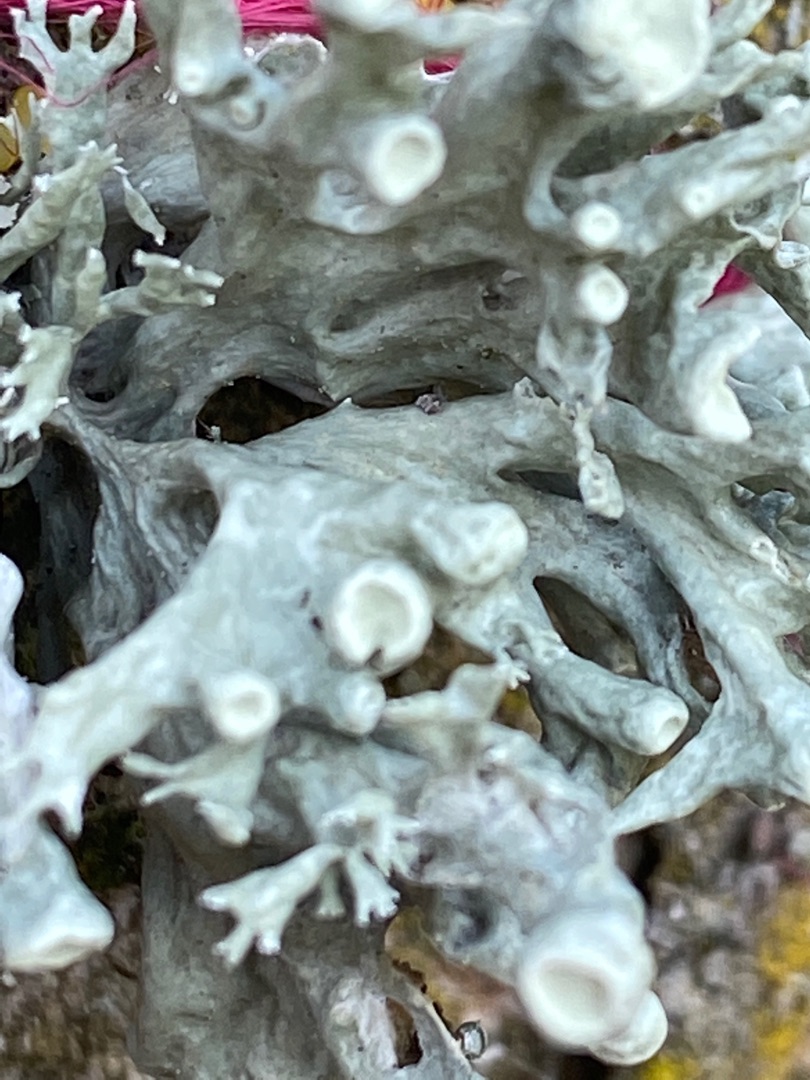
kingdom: Fungi
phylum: Ascomycota
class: Lecanoromycetes
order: Lecanorales
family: Ramalinaceae
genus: Ramalina
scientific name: Ramalina fastigiata
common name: Tue-grenlav
